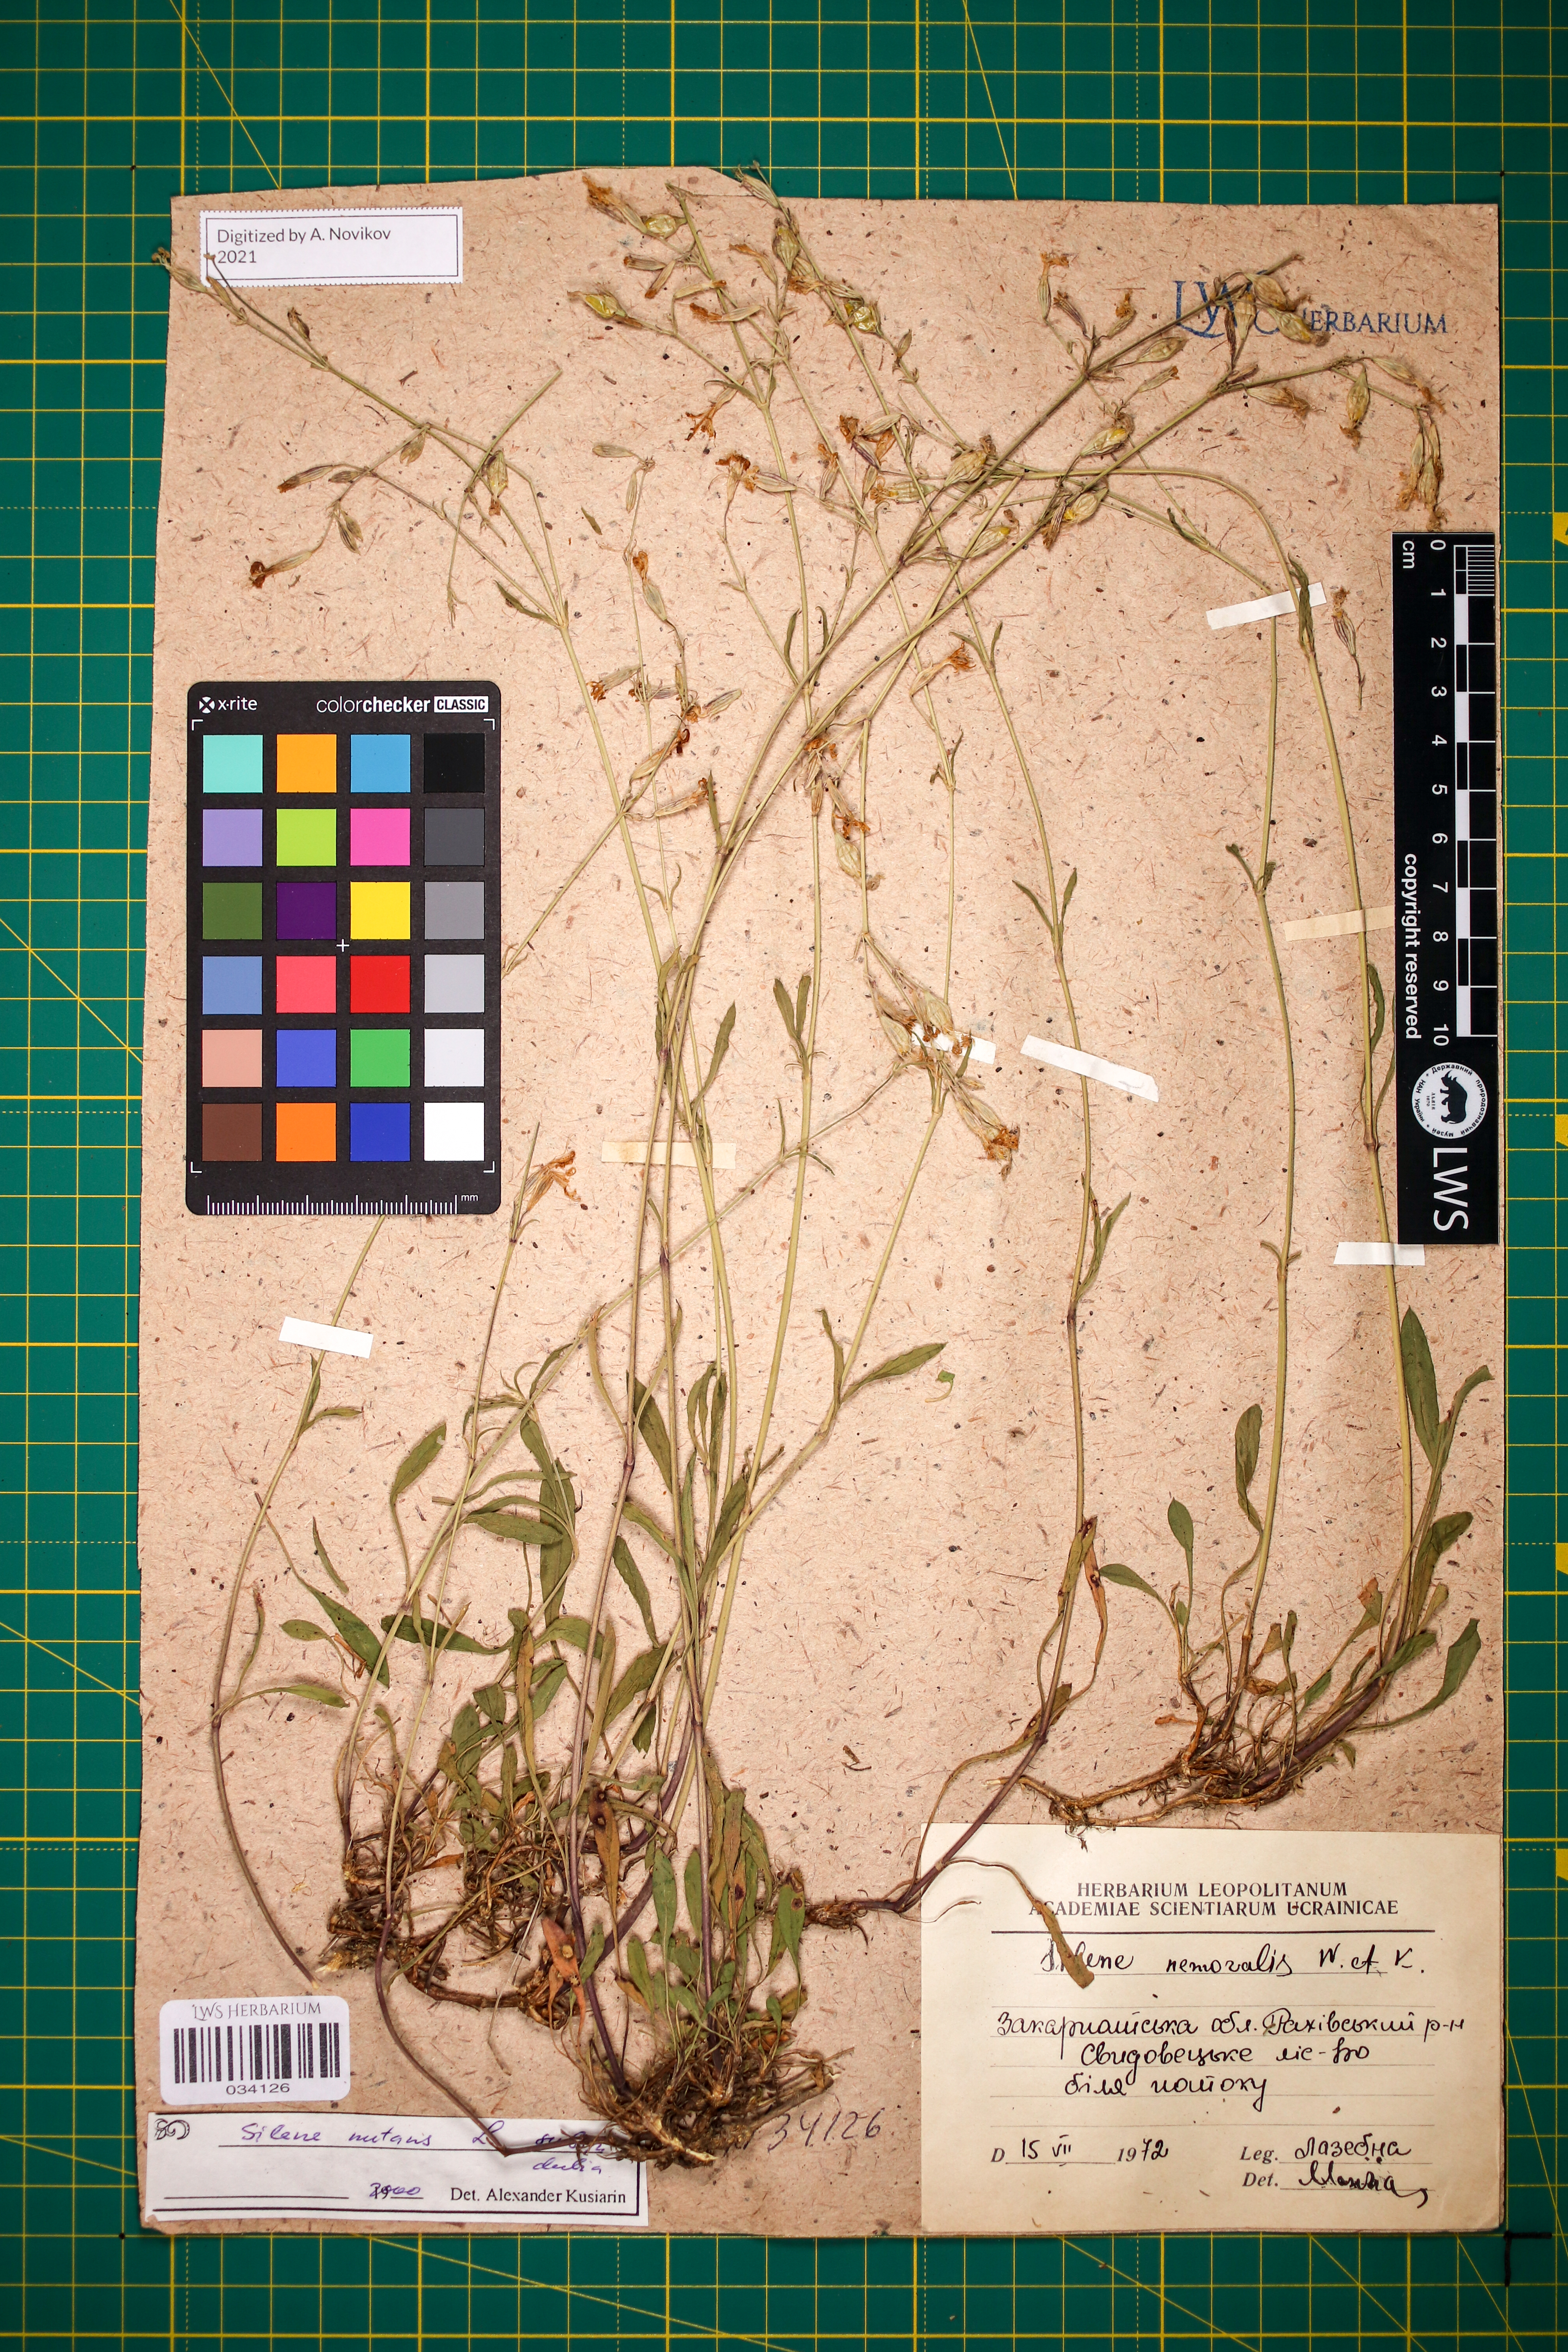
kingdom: Plantae
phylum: Tracheophyta
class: Magnoliopsida
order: Caryophyllales
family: Caryophyllaceae
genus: Silene
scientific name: Silene nutans
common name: Nottingham catchfly
